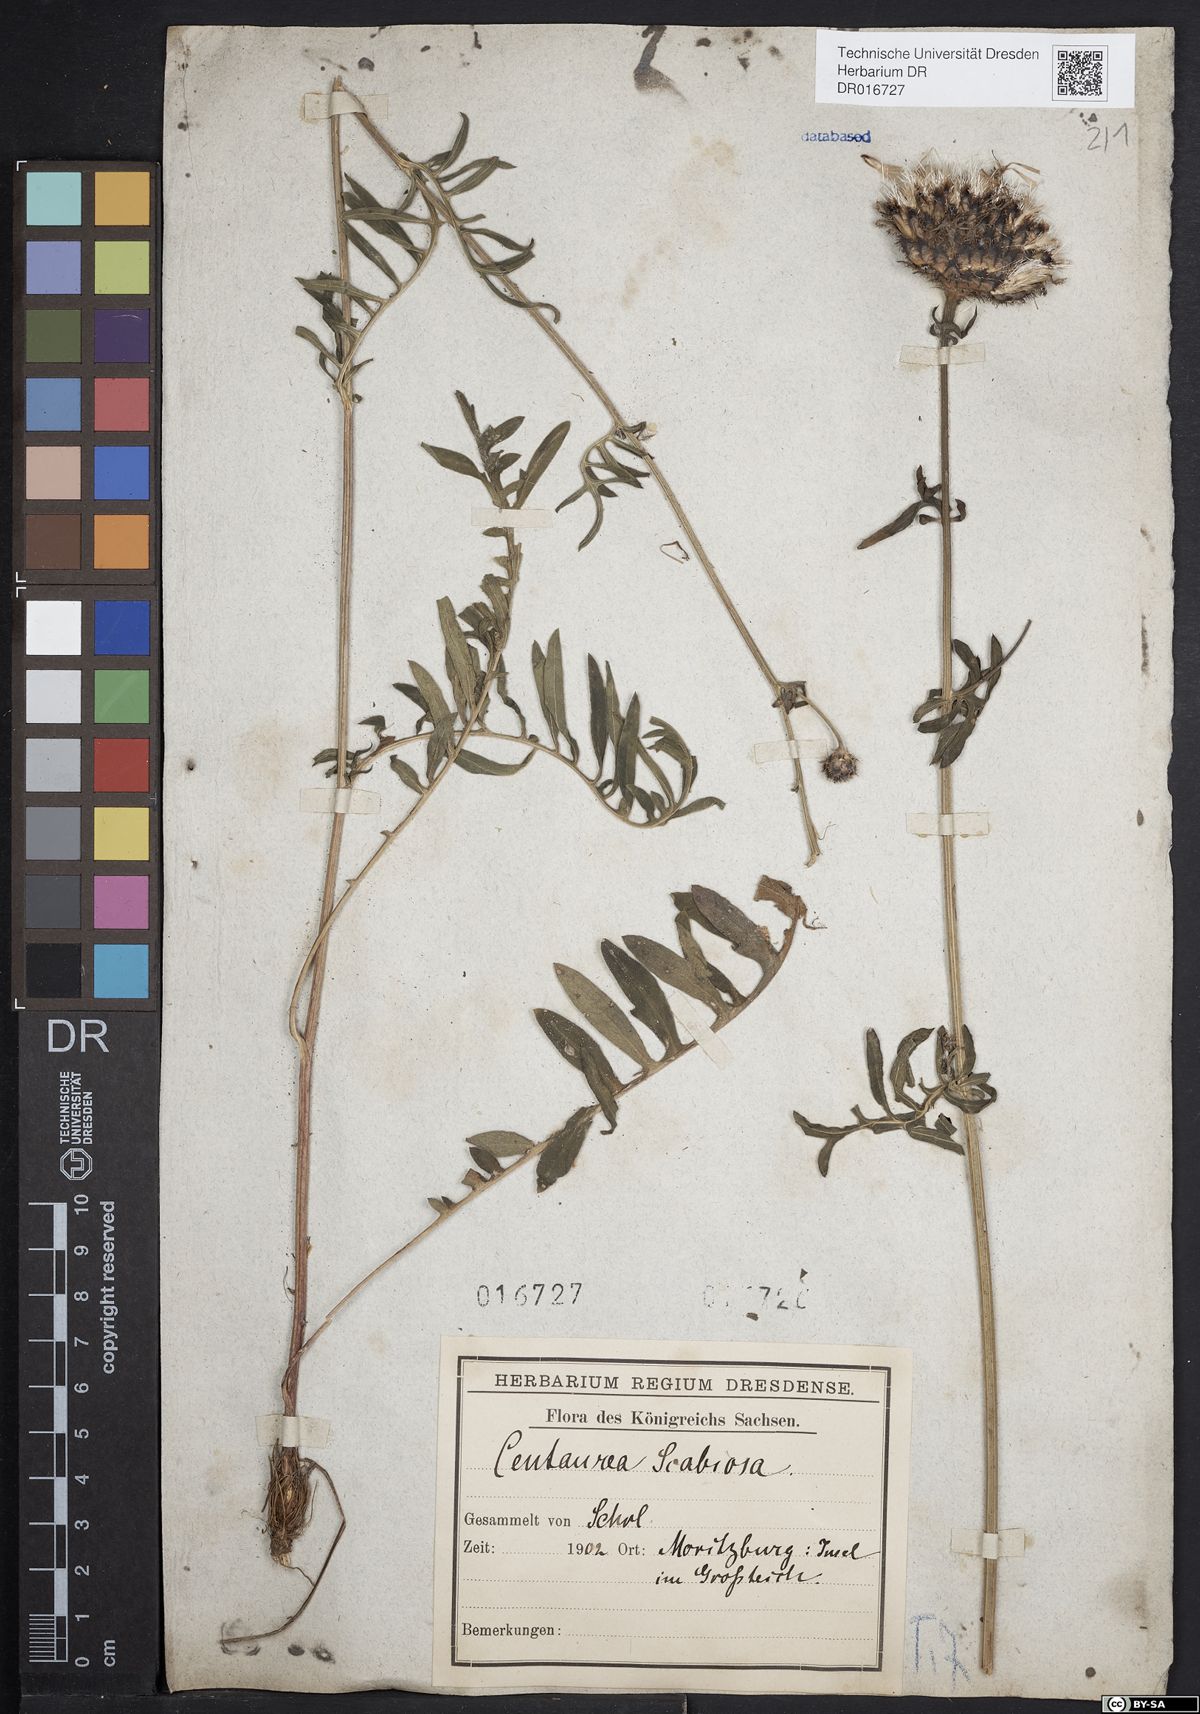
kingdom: Plantae
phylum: Tracheophyta
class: Magnoliopsida
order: Asterales
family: Asteraceae
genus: Centaurea
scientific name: Centaurea scabiosa
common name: Greater knapweed
